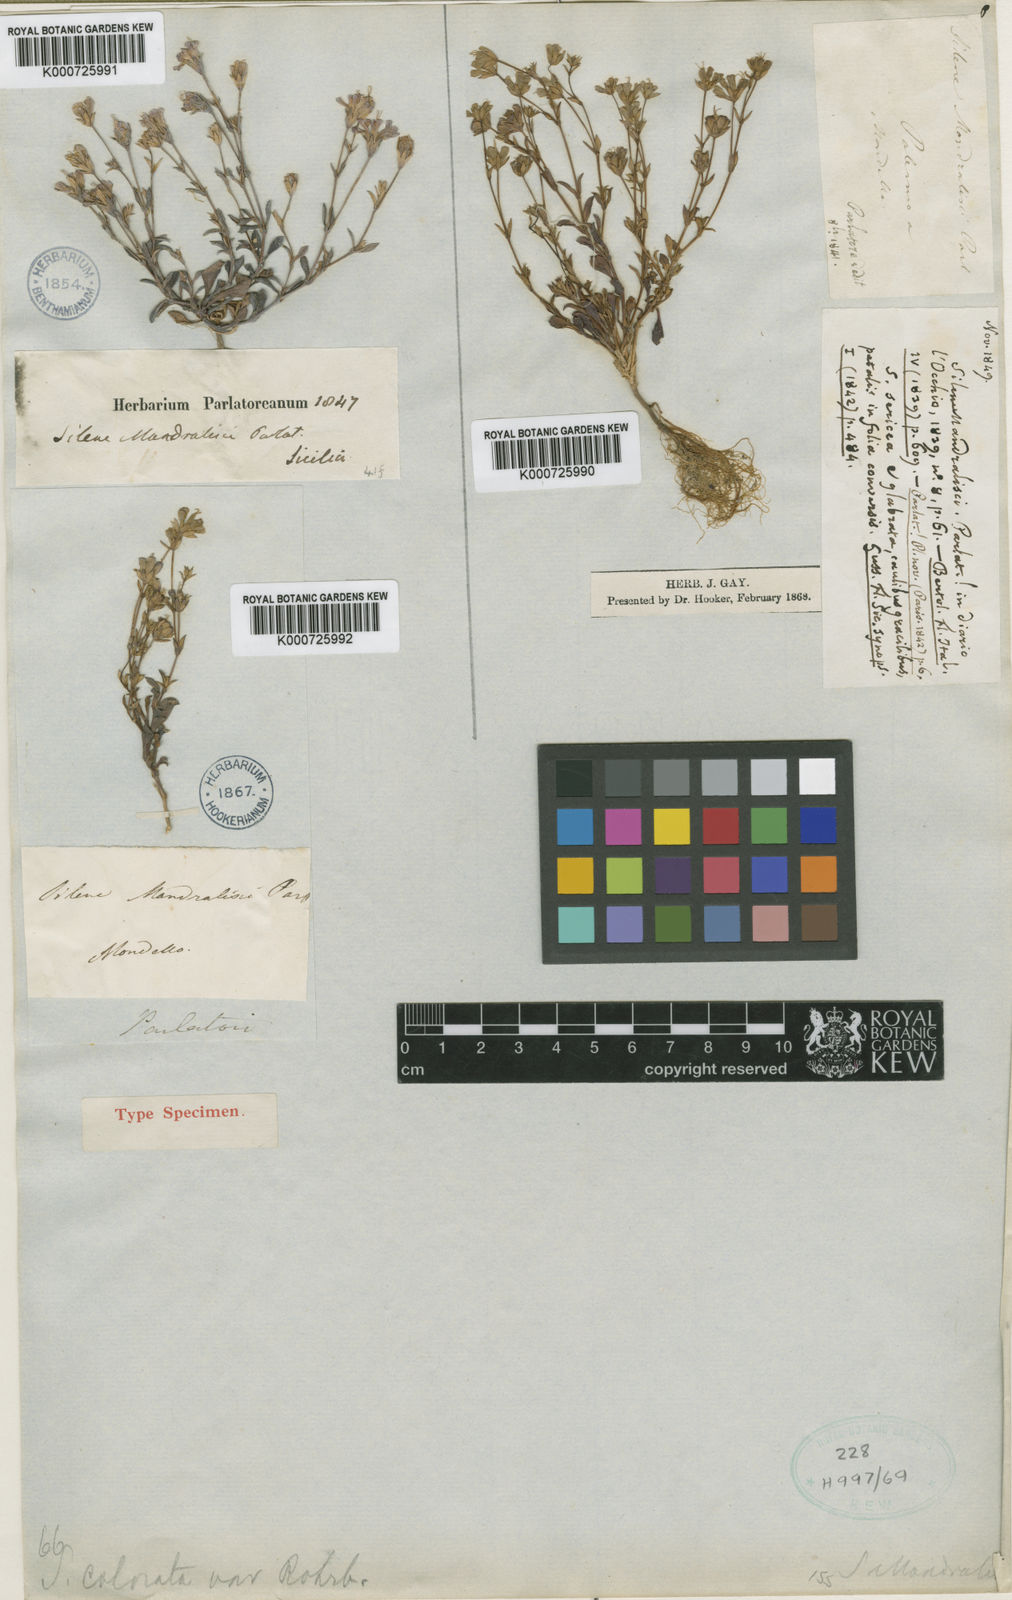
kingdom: Plantae
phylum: Tracheophyta
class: Magnoliopsida
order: Caryophyllales
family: Caryophyllaceae
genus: Silene
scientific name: Silene sericea
